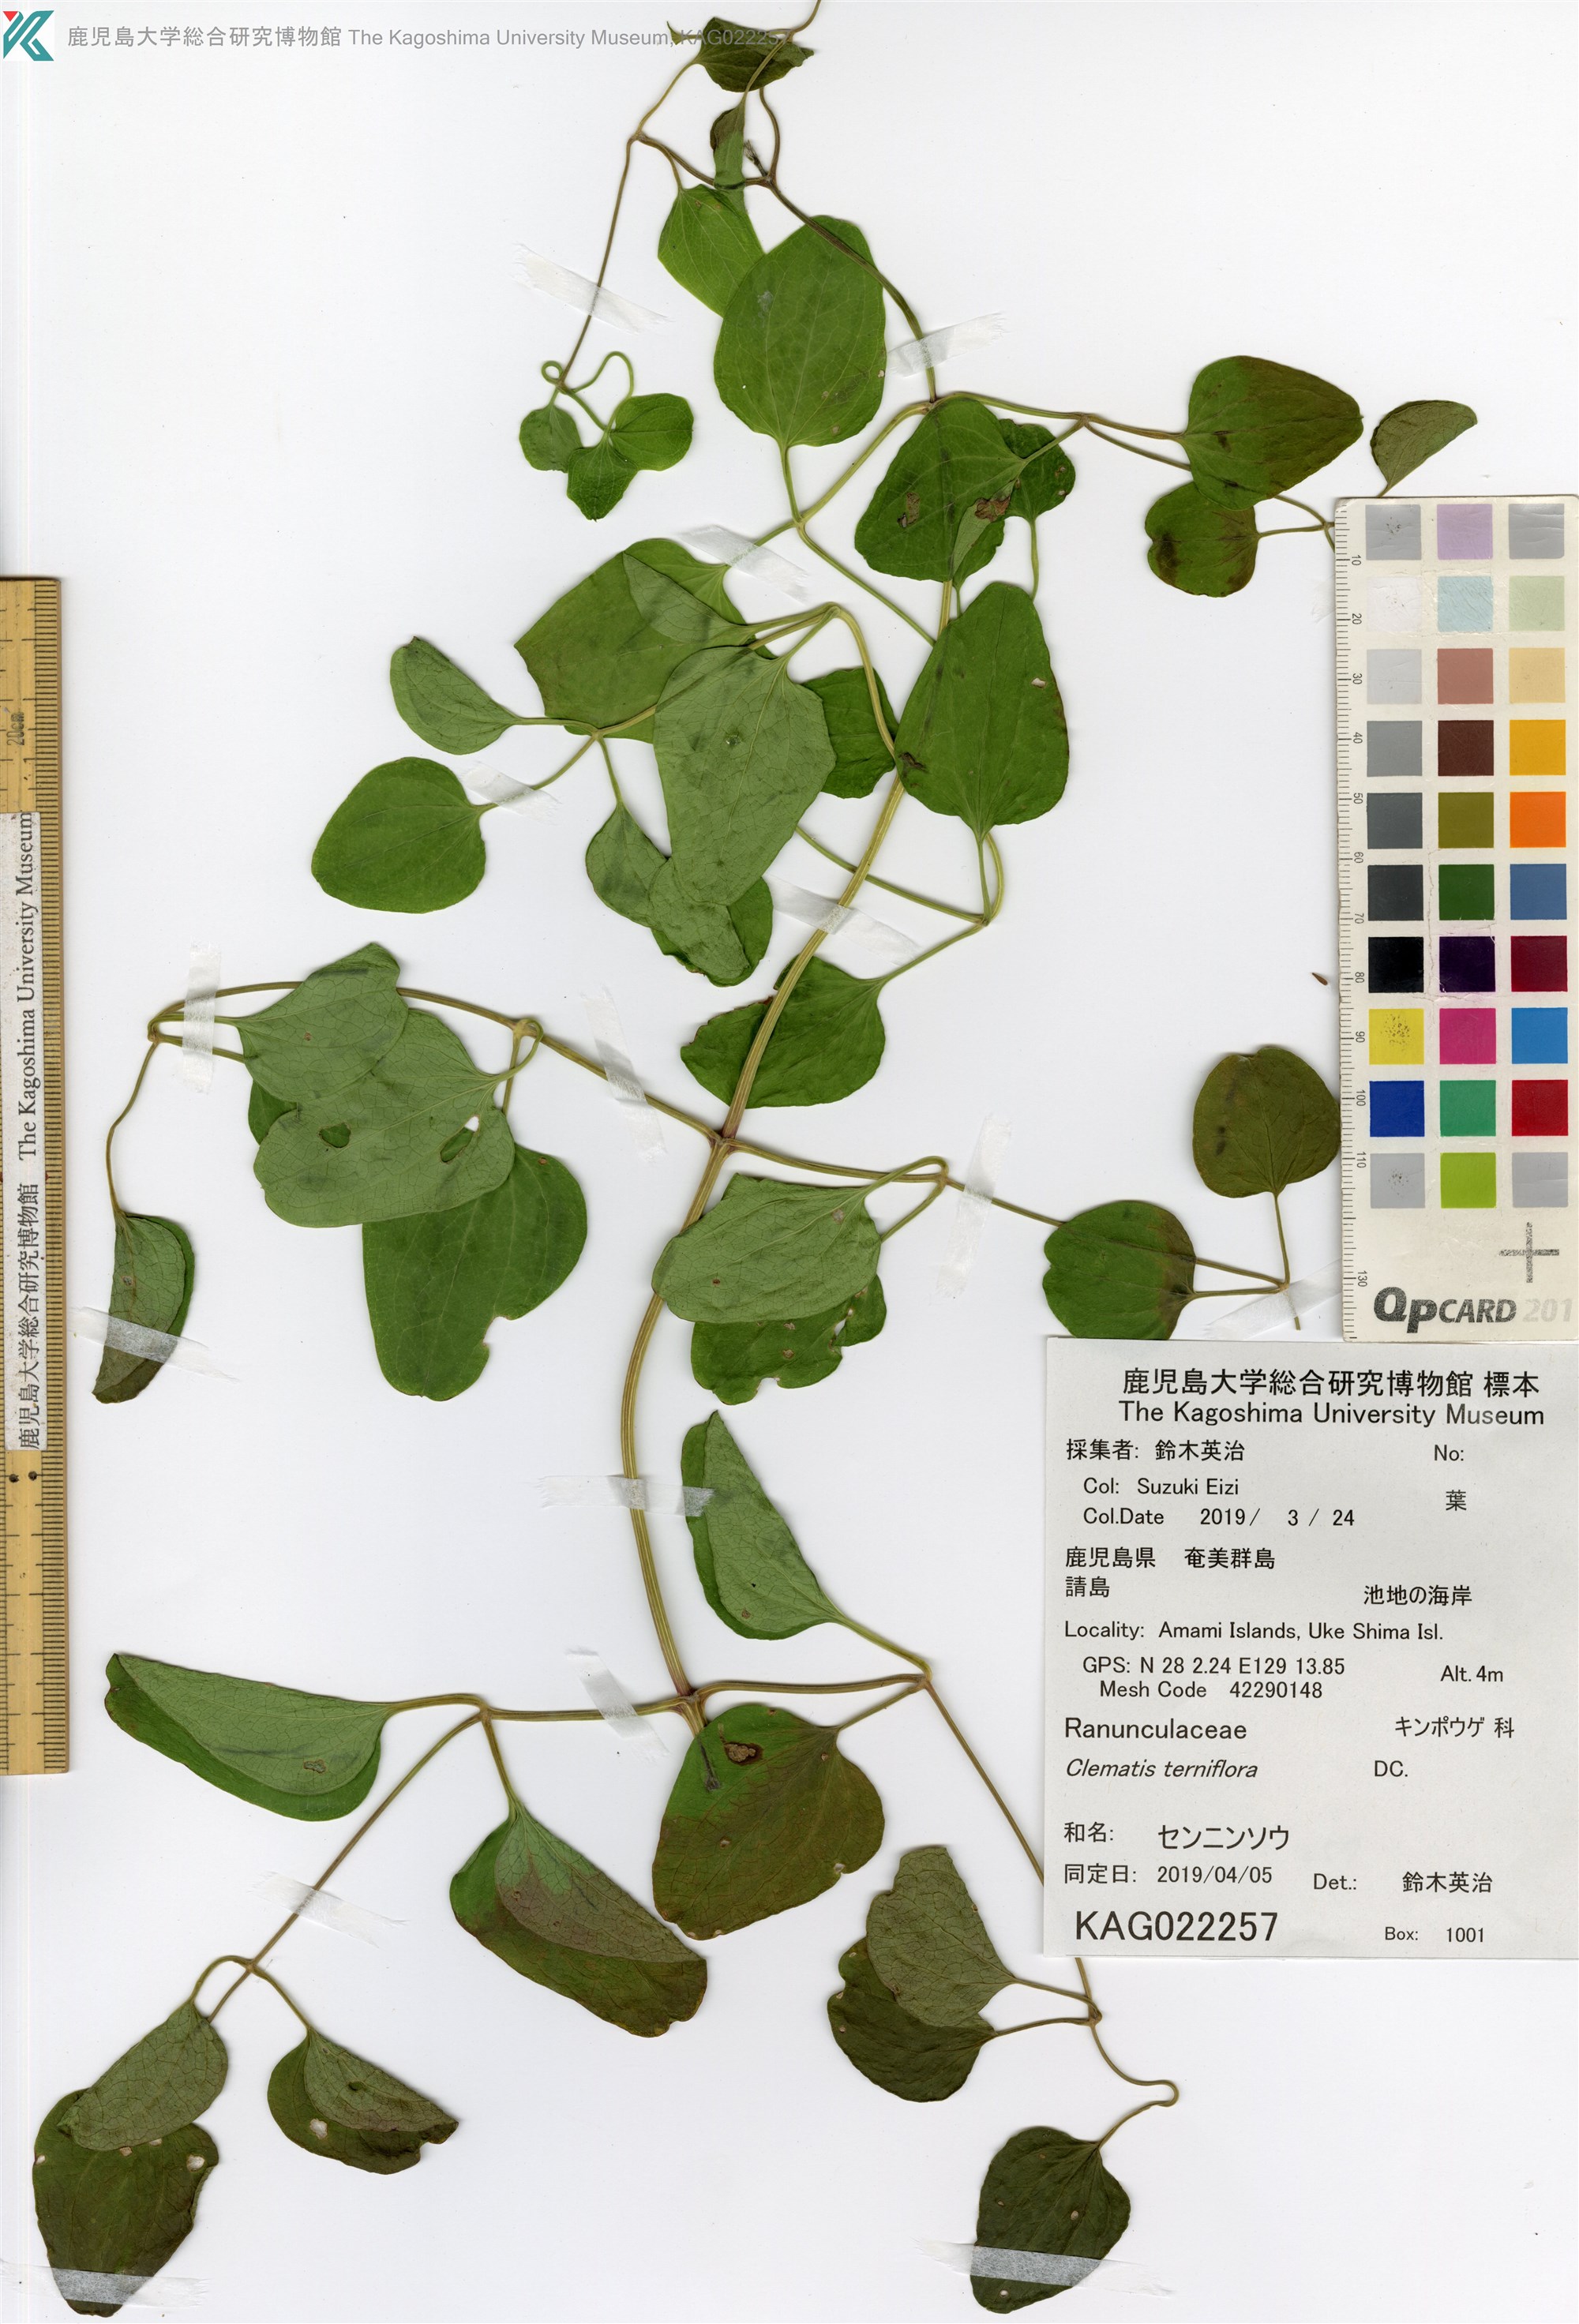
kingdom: Plantae
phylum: Tracheophyta
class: Magnoliopsida
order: Ranunculales
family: Ranunculaceae
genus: Clematis
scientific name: Clematis terniflora
